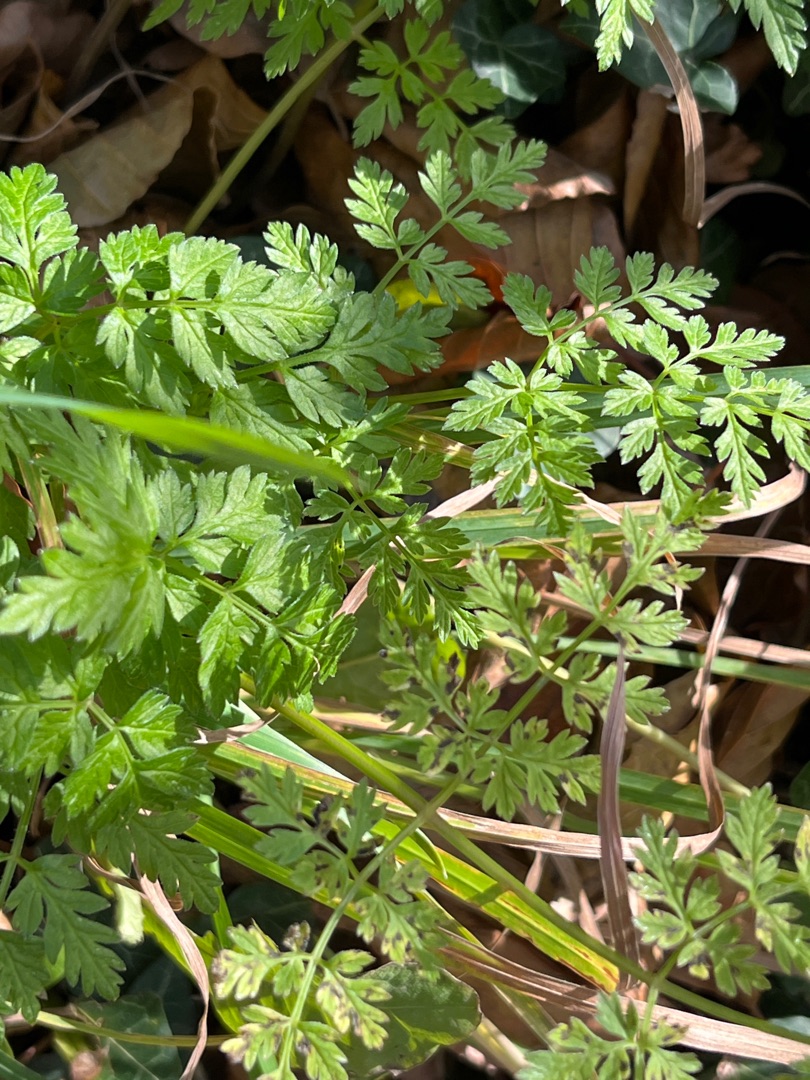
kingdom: Plantae
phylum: Tracheophyta
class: Magnoliopsida
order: Apiales
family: Apiaceae
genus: Anthriscus
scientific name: Anthriscus sylvestris
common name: Vild kørvel
